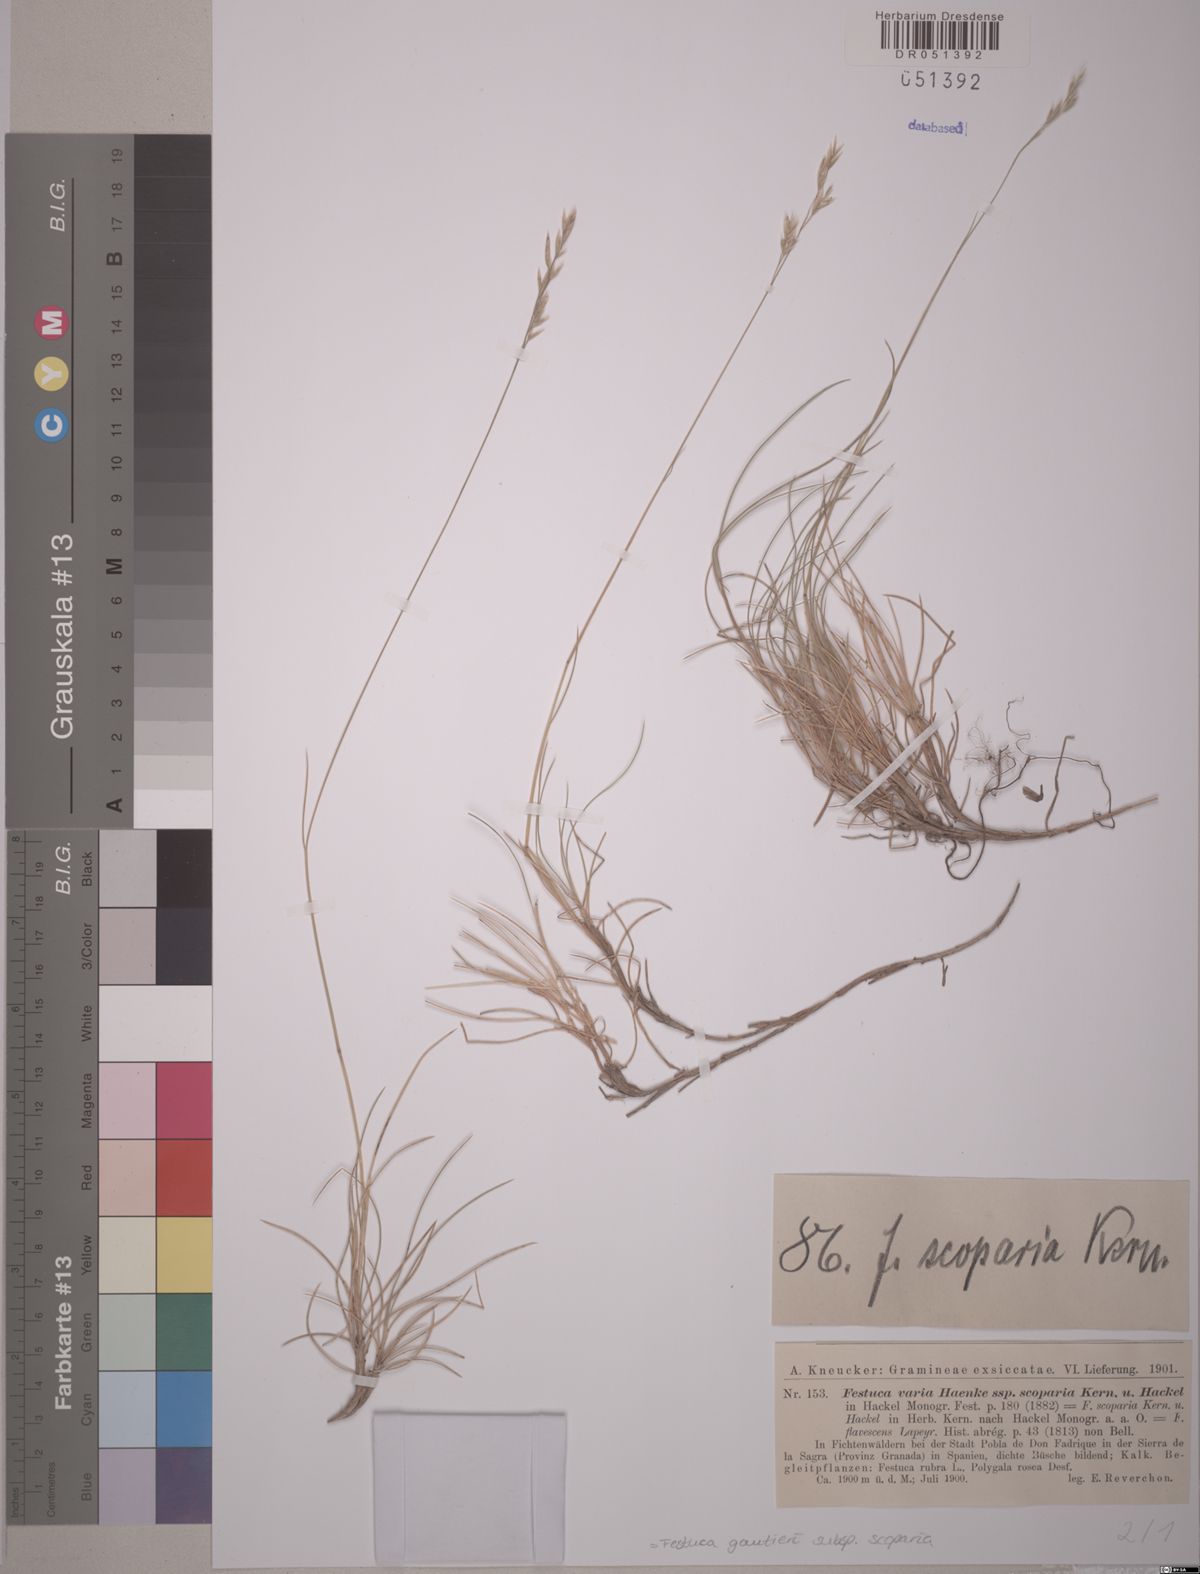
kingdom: Plantae
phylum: Tracheophyta
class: Liliopsida
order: Poales
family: Poaceae
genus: Festuca
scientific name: Festuca gautieri
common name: Spiky fescue
